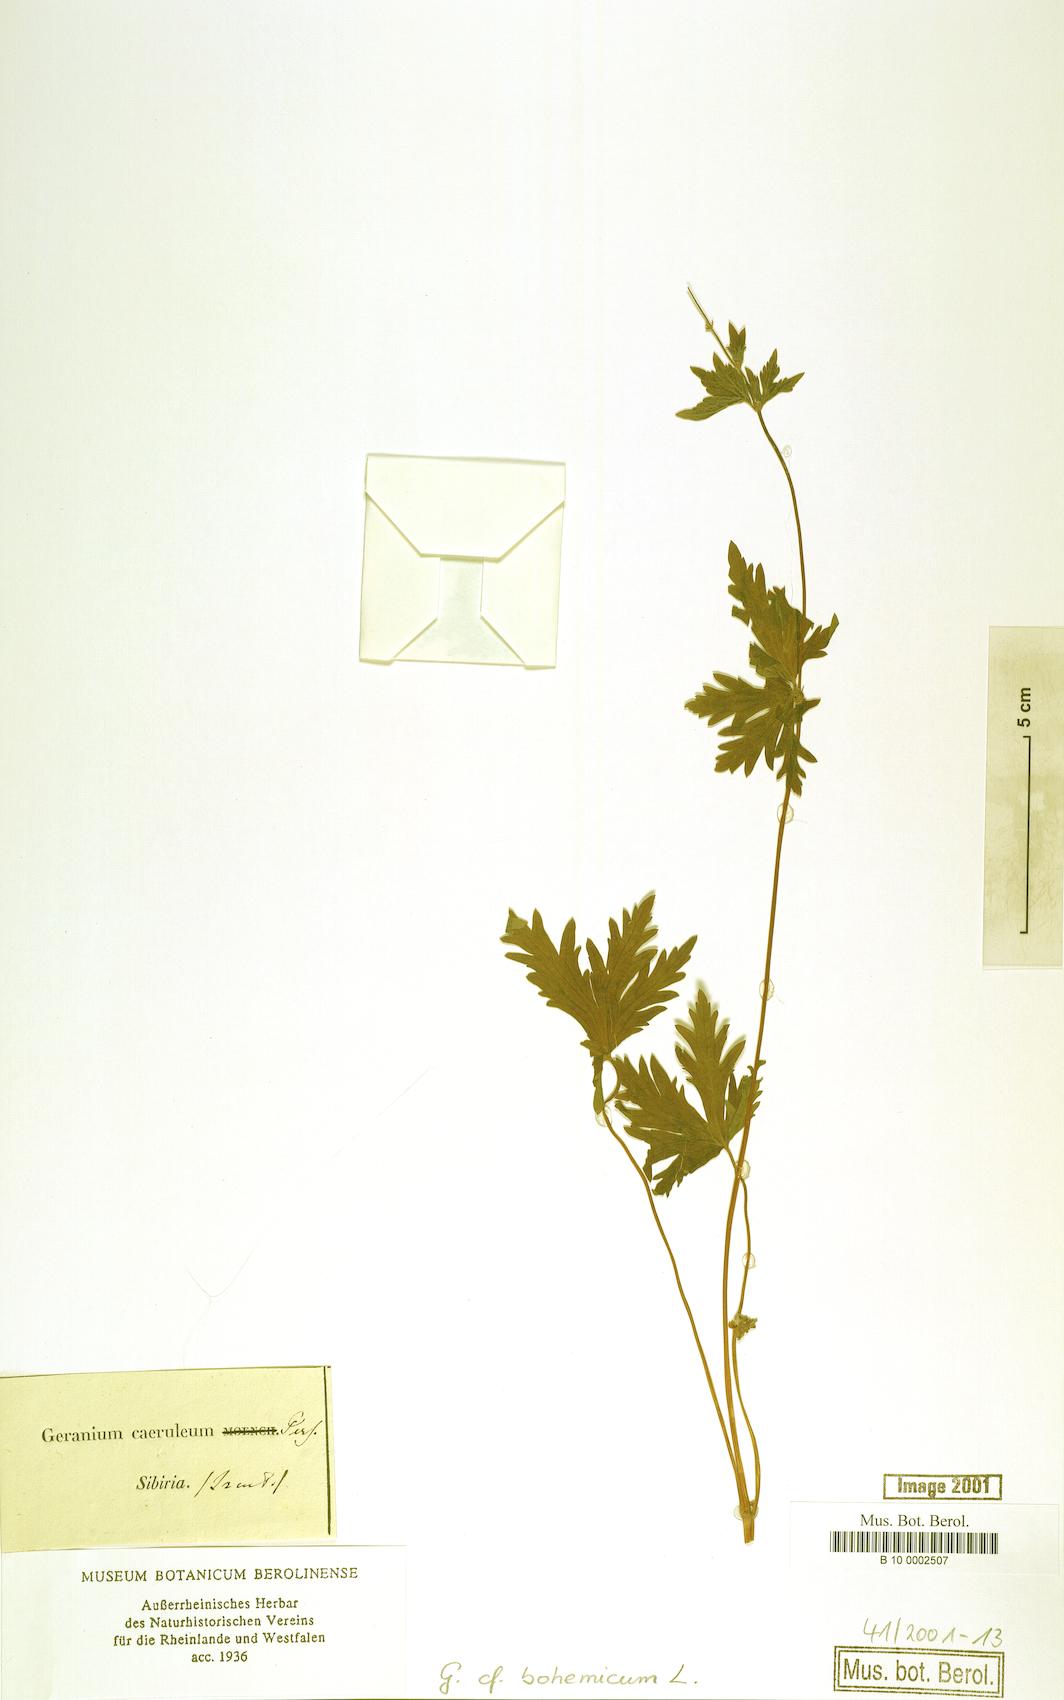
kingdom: Plantae
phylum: Tracheophyta
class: Magnoliopsida
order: Geraniales
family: Geraniaceae
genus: Geranium
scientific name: Geranium bohemicum
